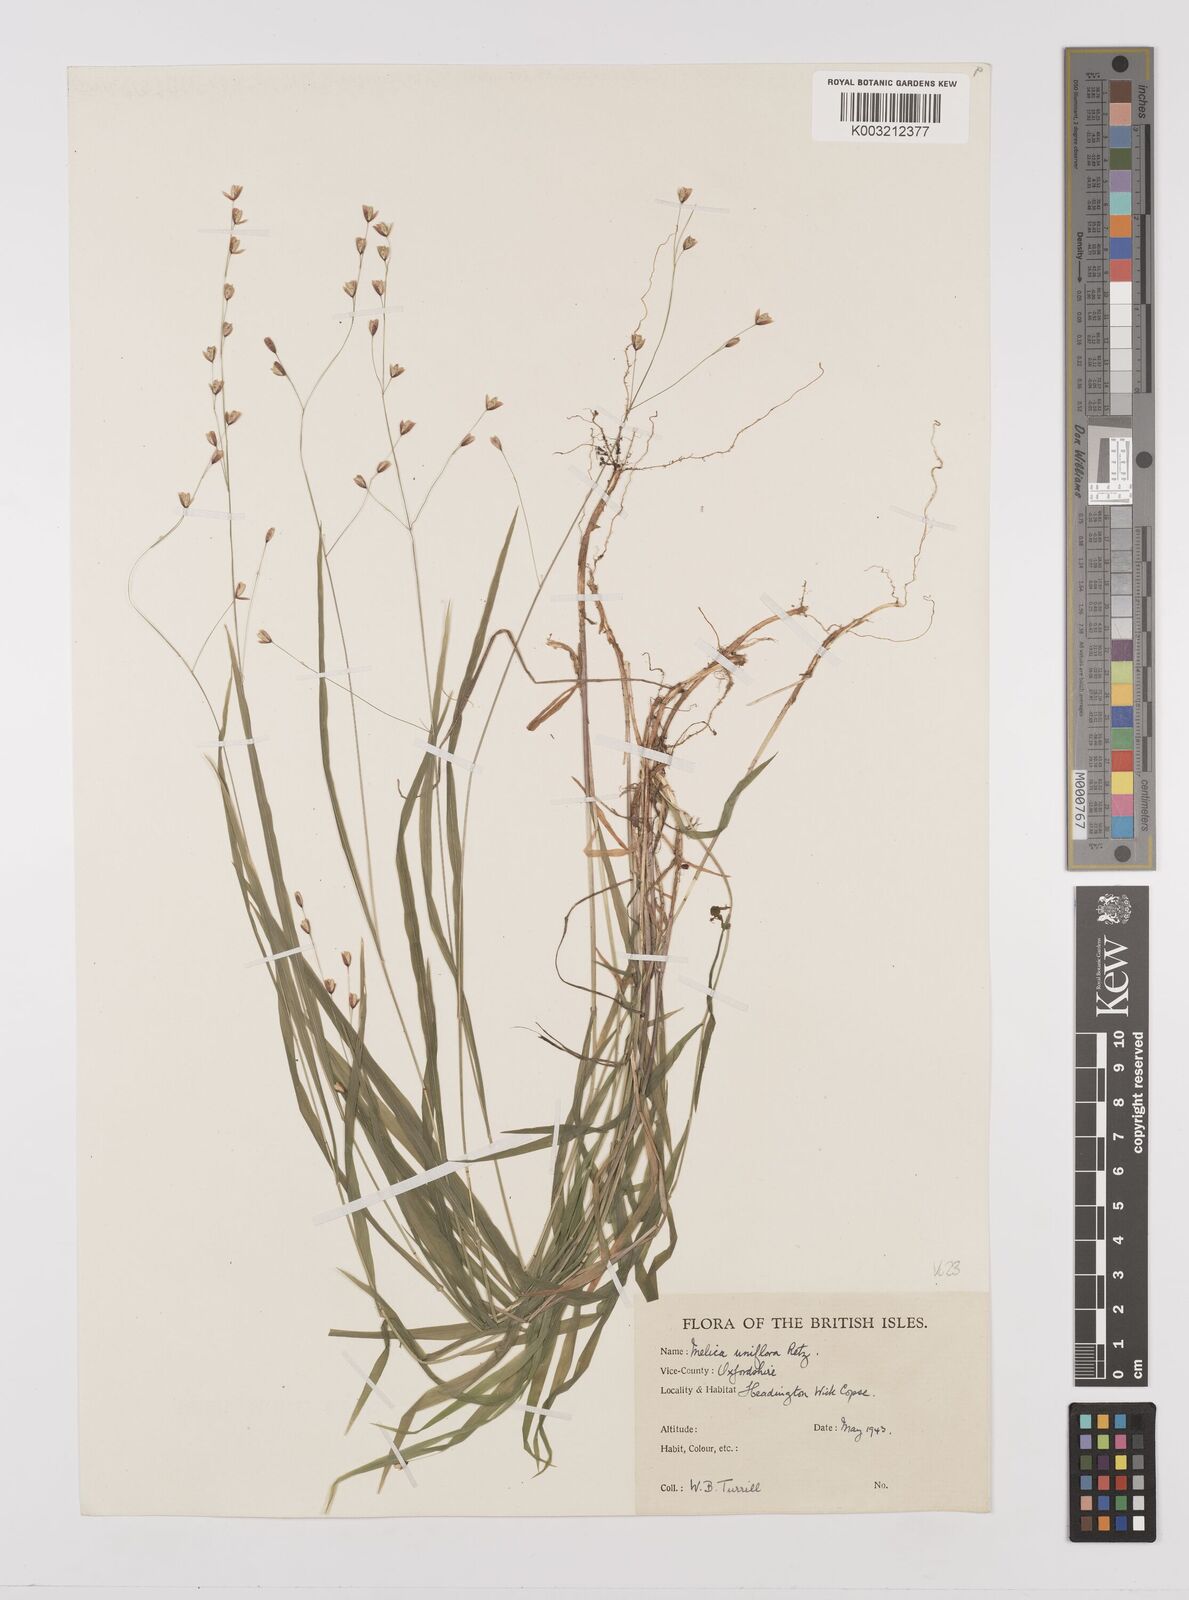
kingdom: Plantae
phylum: Tracheophyta
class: Liliopsida
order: Poales
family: Poaceae
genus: Melica
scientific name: Melica uniflora
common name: Wood melick
